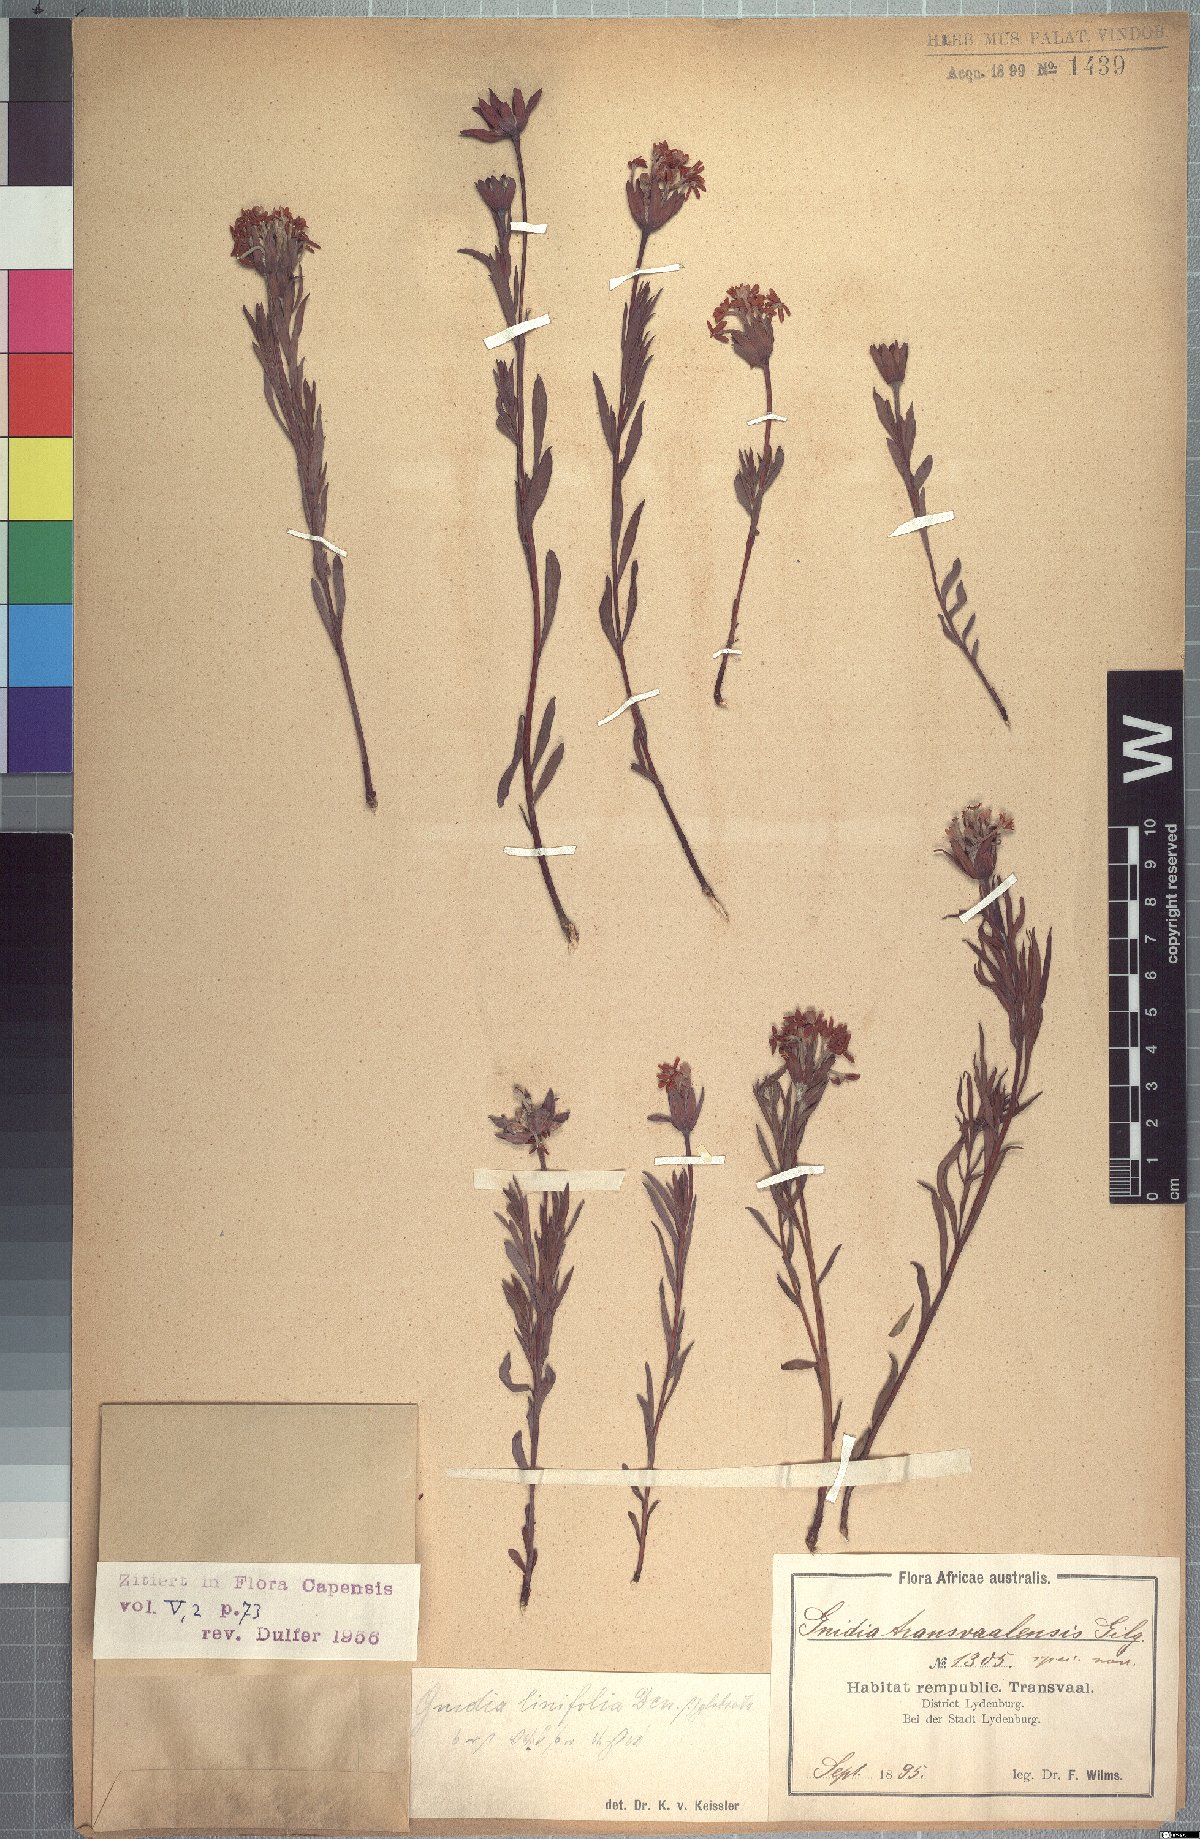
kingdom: Plantae
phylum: Tracheophyta
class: Magnoliopsida
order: Malvales
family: Thymelaeaceae
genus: Gnidia
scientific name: Gnidia capitata
